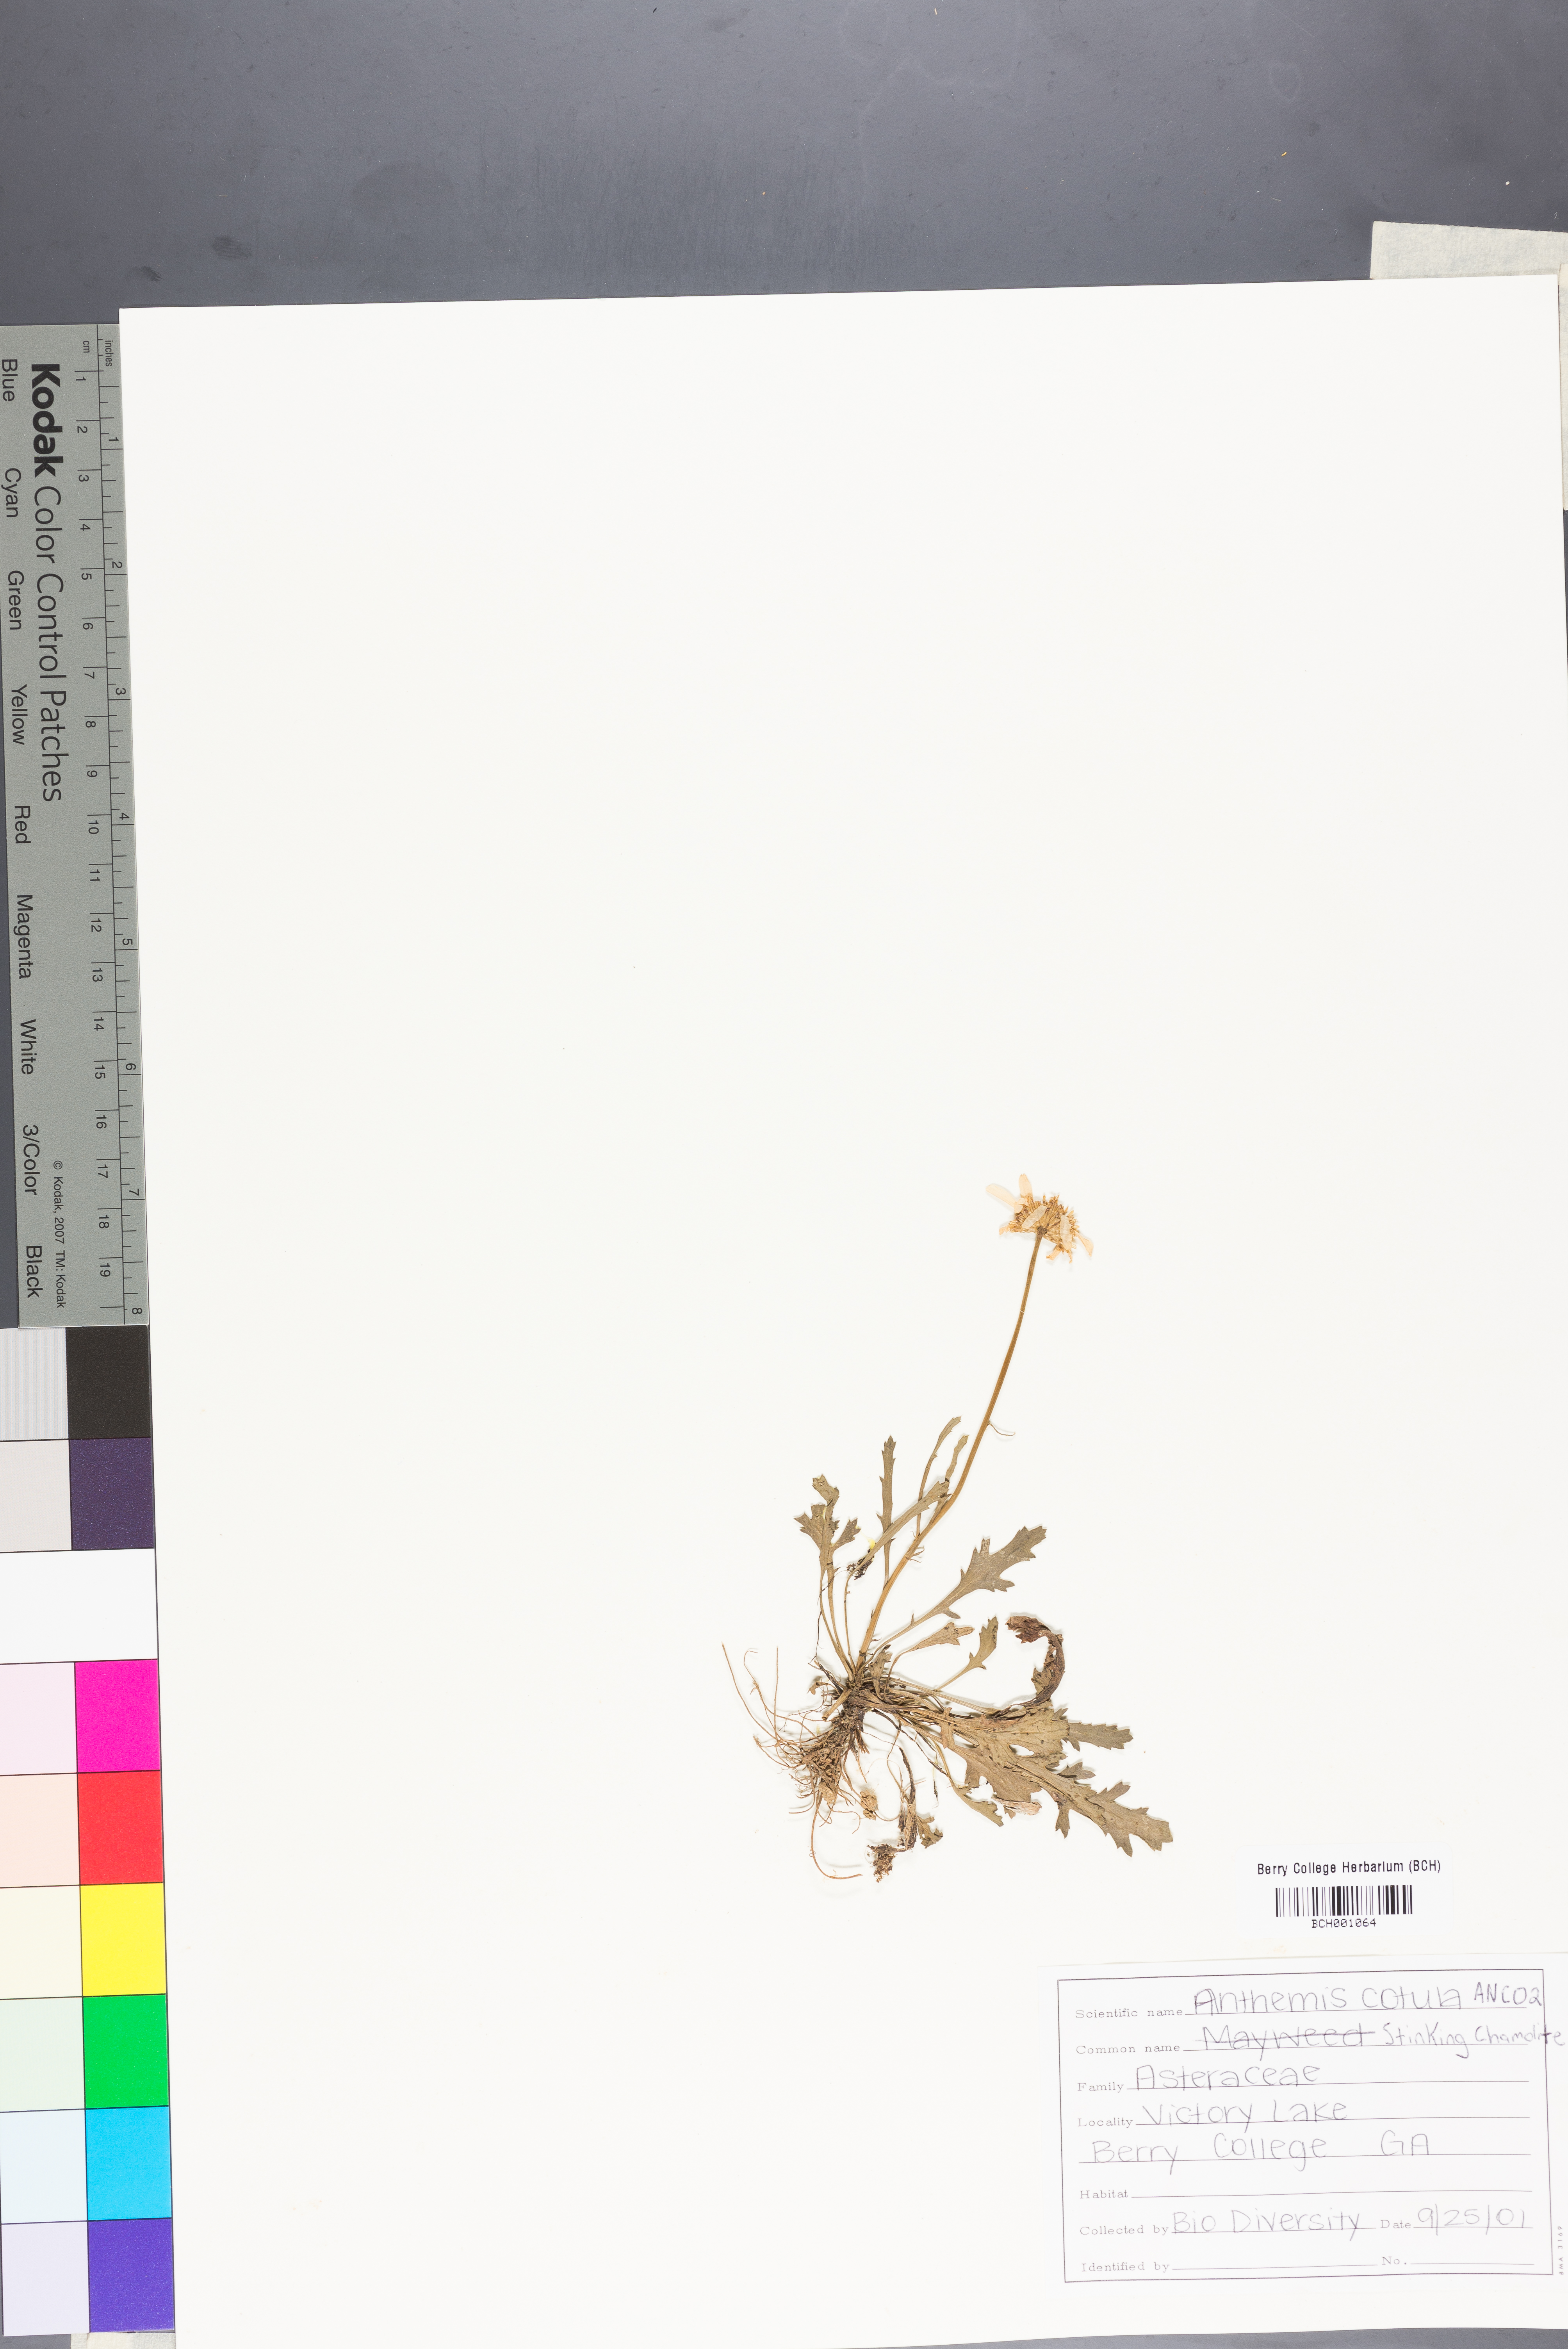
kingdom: Plantae
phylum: Tracheophyta
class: Magnoliopsida
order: Asterales
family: Asteraceae
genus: Anthemis
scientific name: Anthemis cotula
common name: Stinking chamomile
